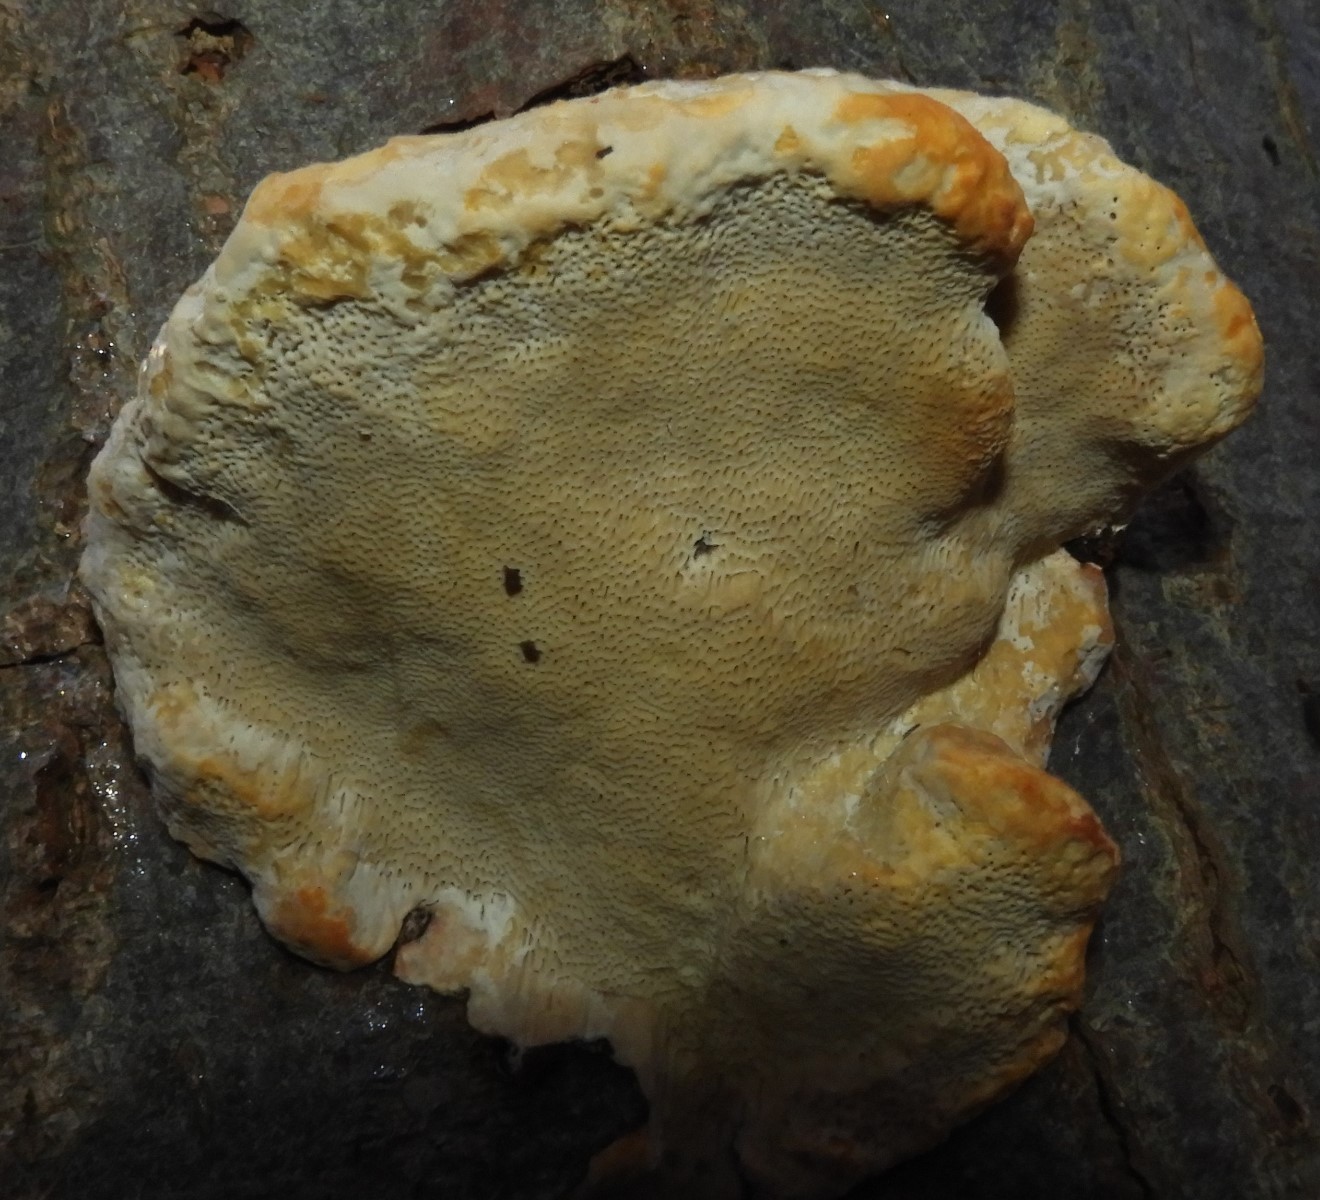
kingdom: Fungi
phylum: Basidiomycota
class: Agaricomycetes
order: Polyporales
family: Fomitopsidaceae
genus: Fomitopsis
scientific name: Fomitopsis pinicola
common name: randbæltet hovporesvamp
